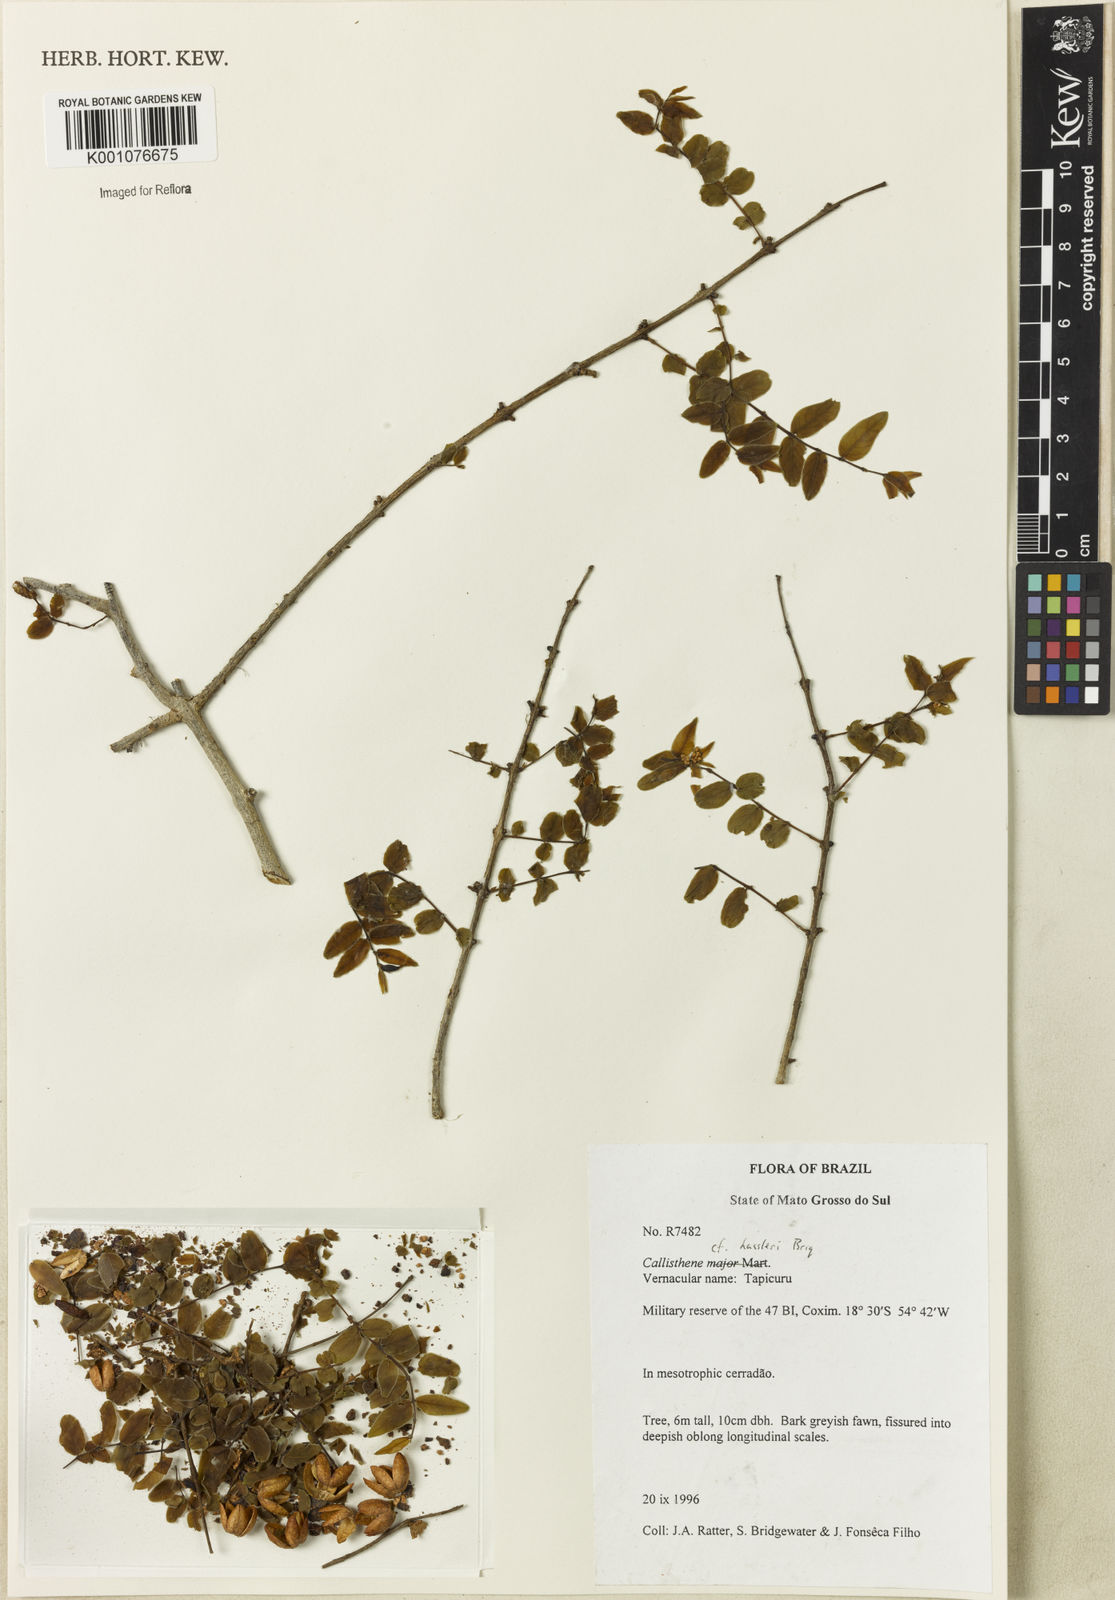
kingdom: Plantae
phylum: Tracheophyta
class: Magnoliopsida
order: Myrtales
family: Vochysiaceae
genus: Callisthene
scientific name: Callisthene hassleri
